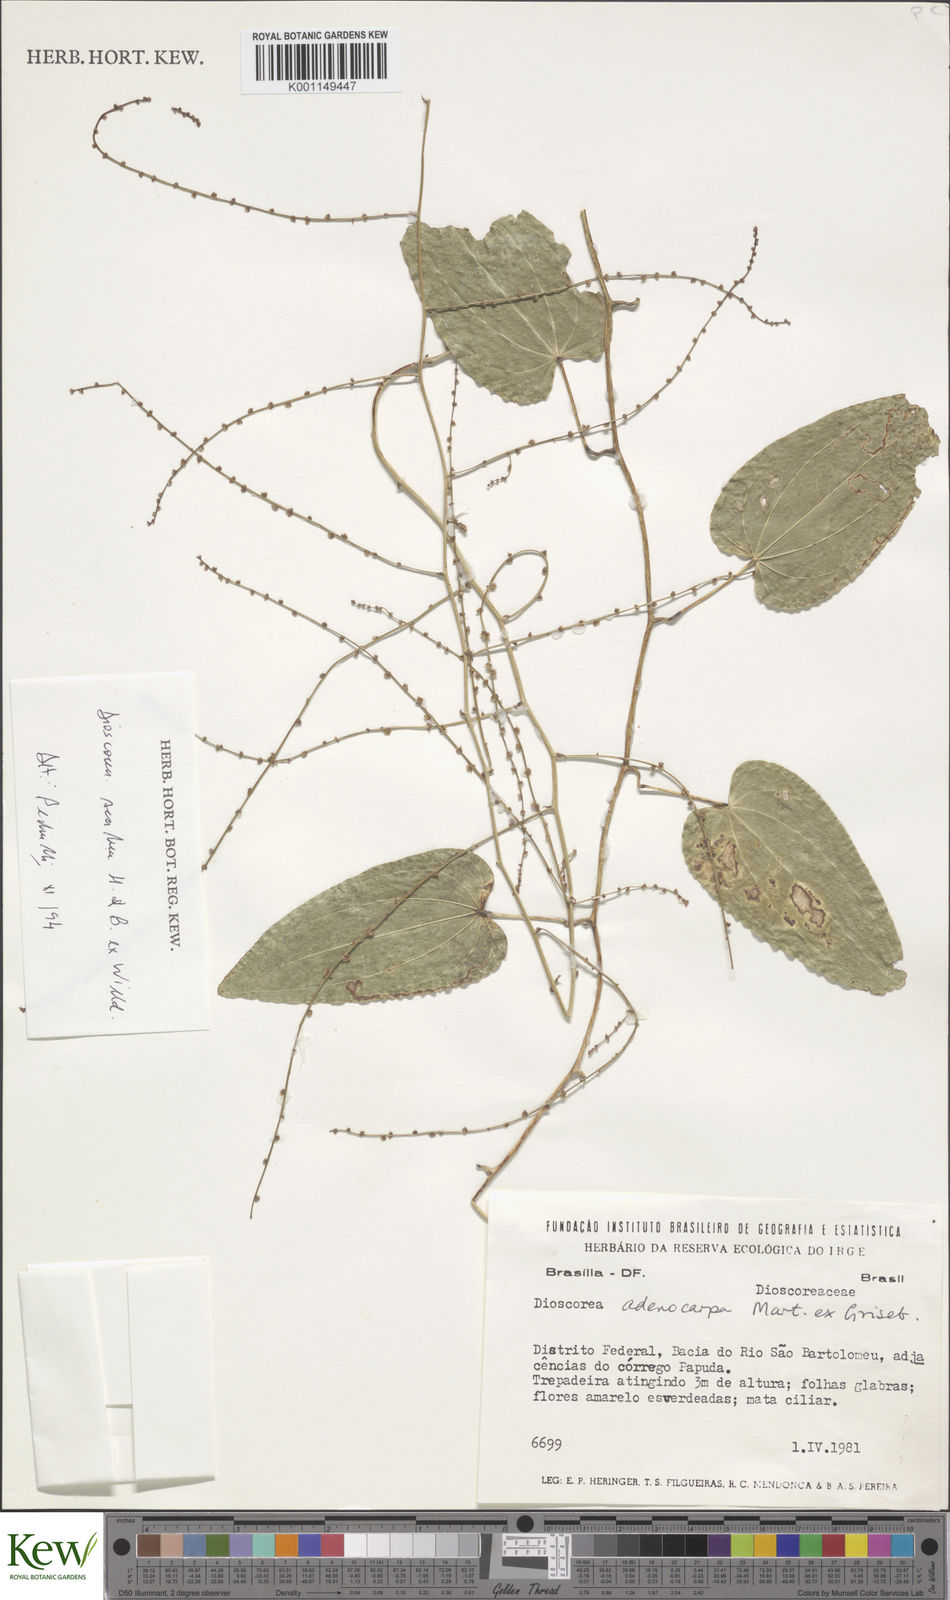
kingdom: Plantae
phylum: Tracheophyta
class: Liliopsida
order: Dioscoreales
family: Dioscoreaceae
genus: Dioscorea
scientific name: Dioscorea ovata
